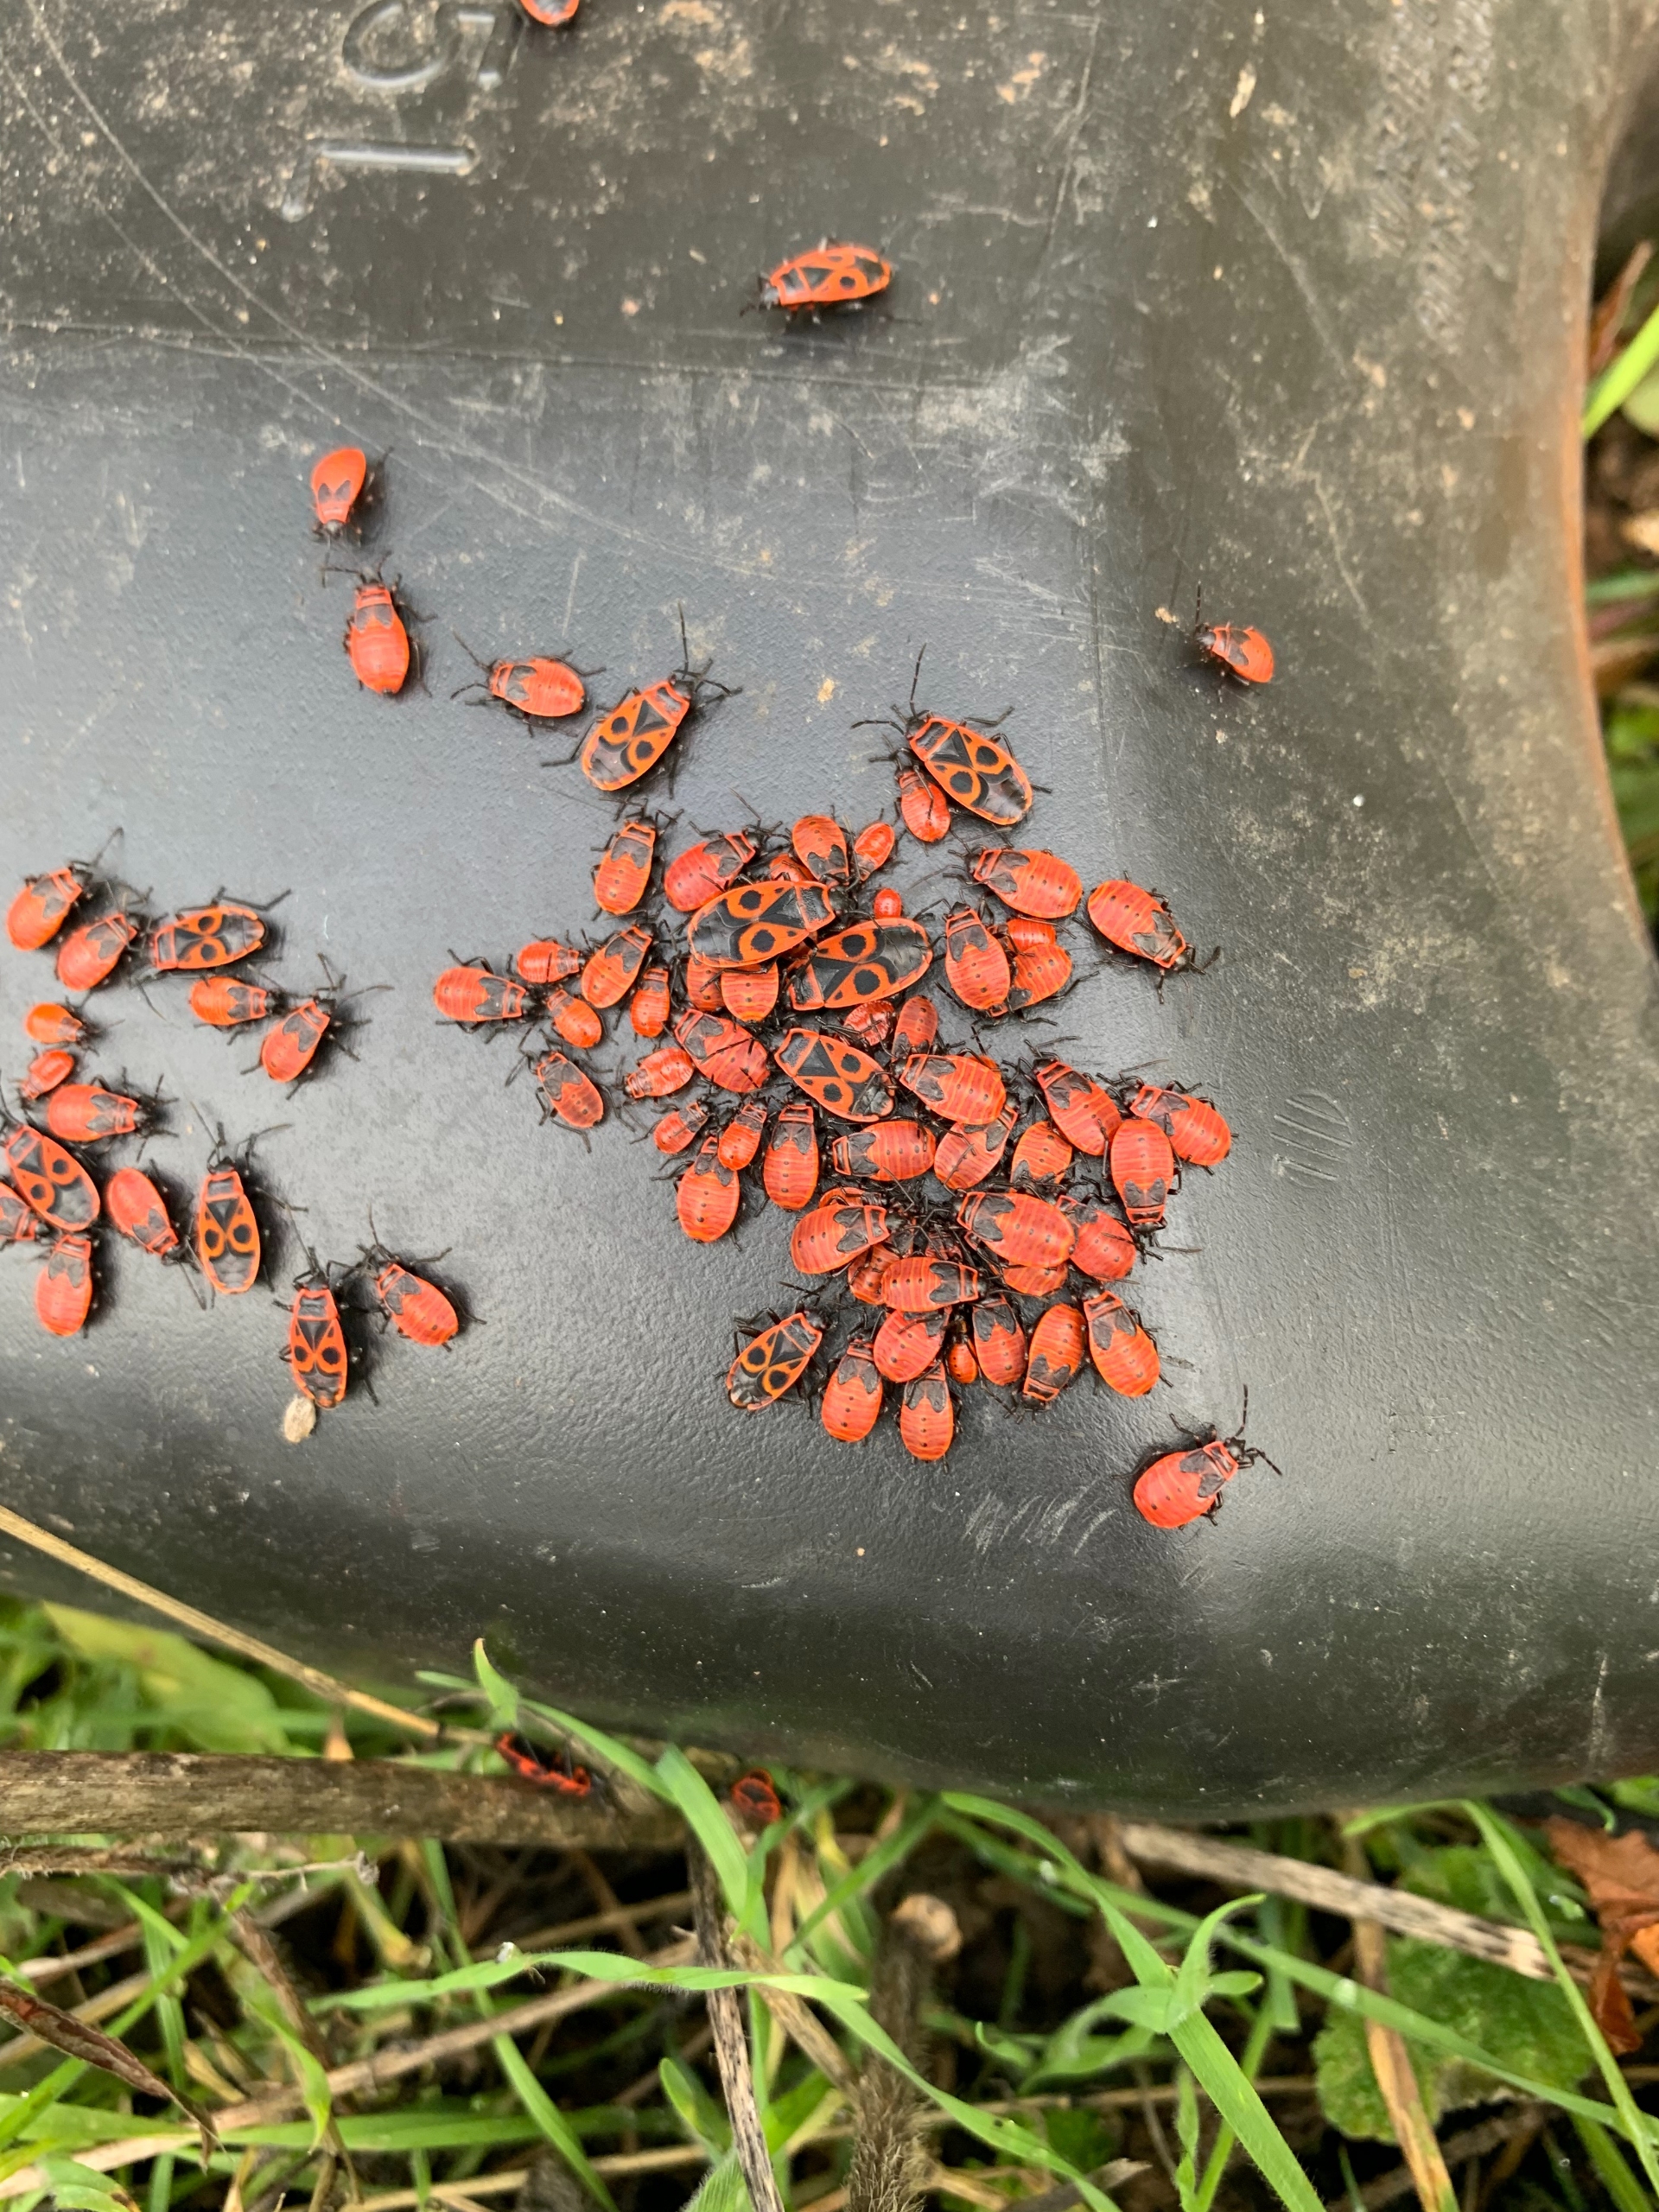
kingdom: Animalia
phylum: Arthropoda
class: Insecta
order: Hemiptera
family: Pyrrhocoridae
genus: Pyrrhocoris
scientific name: Pyrrhocoris apterus
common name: Ildtæge
